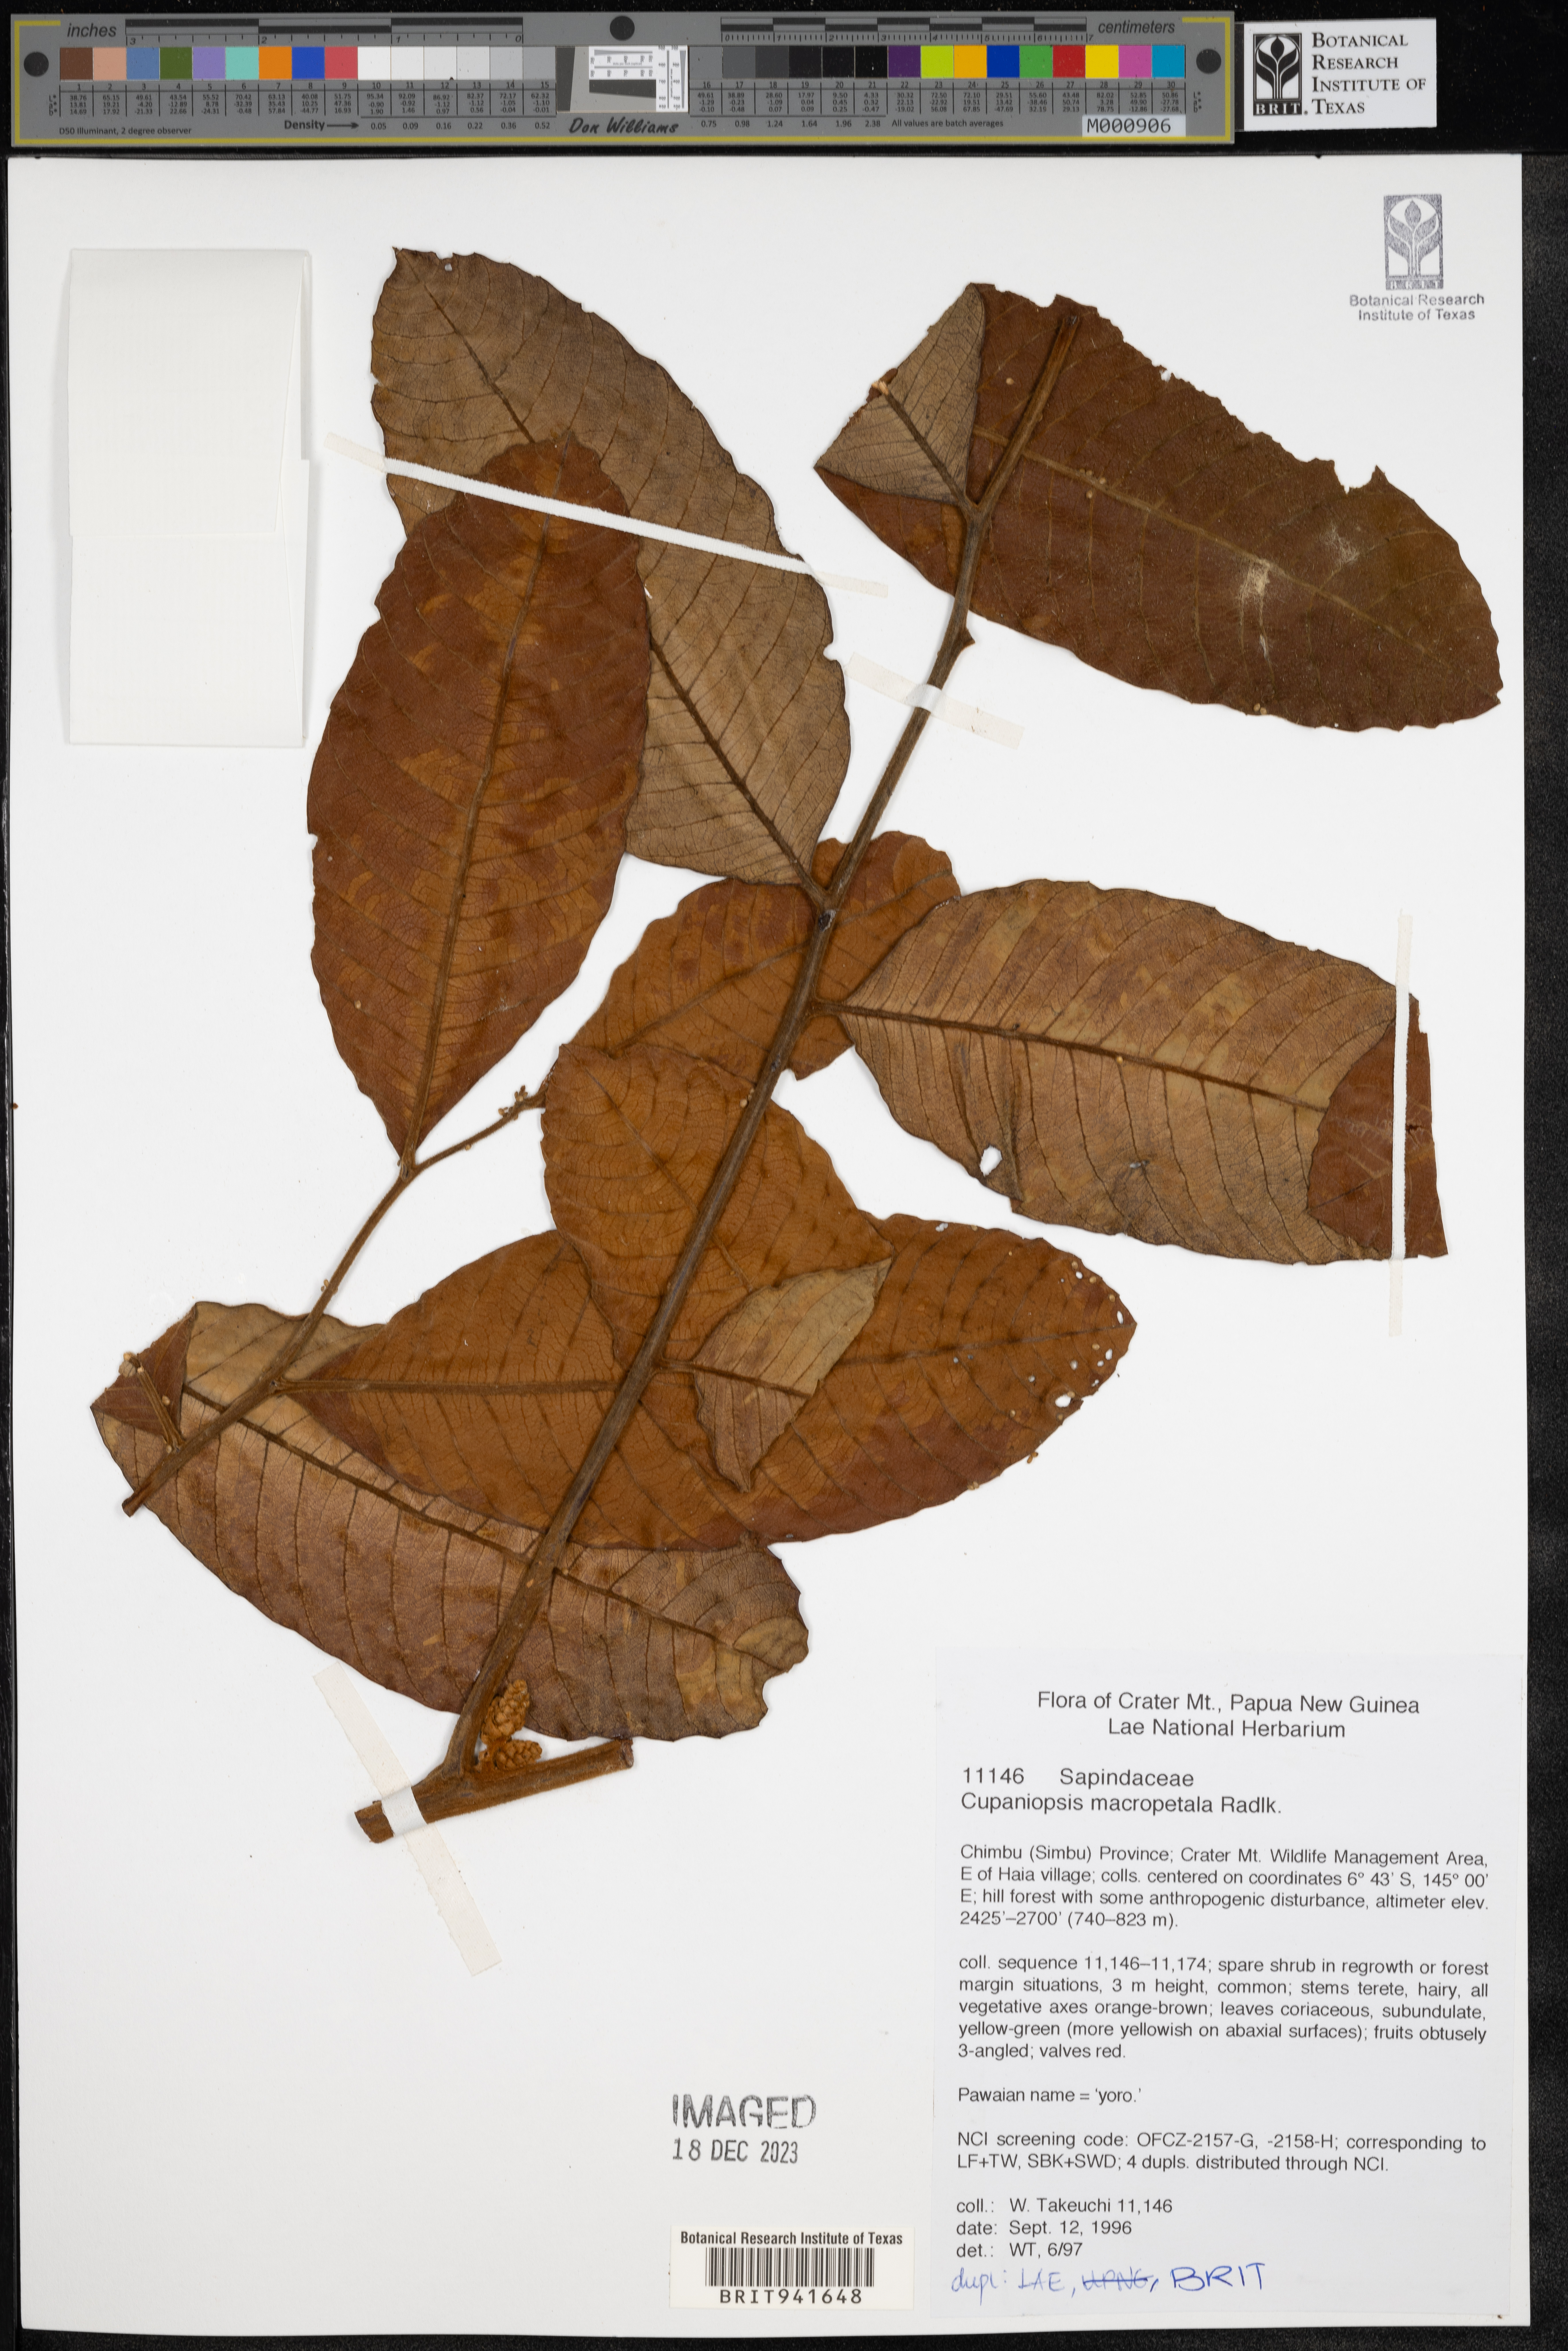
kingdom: Plantae
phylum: Tracheophyta
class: Magnoliopsida
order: Sapindales
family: Sapindaceae
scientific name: Sapindaceae
